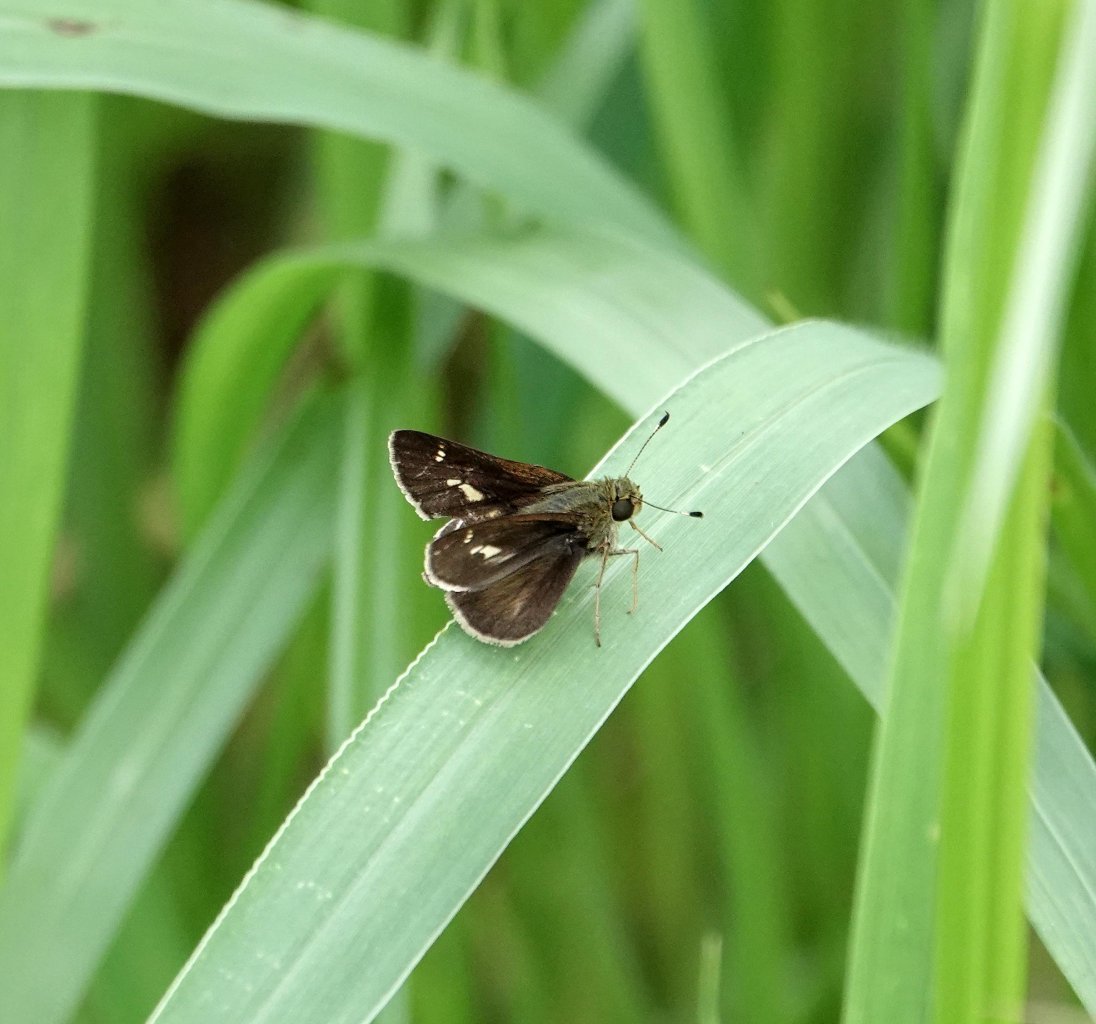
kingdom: Animalia
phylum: Arthropoda
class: Insecta
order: Lepidoptera
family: Hesperiidae
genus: Vernia
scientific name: Vernia verna
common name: Little Glassywing
